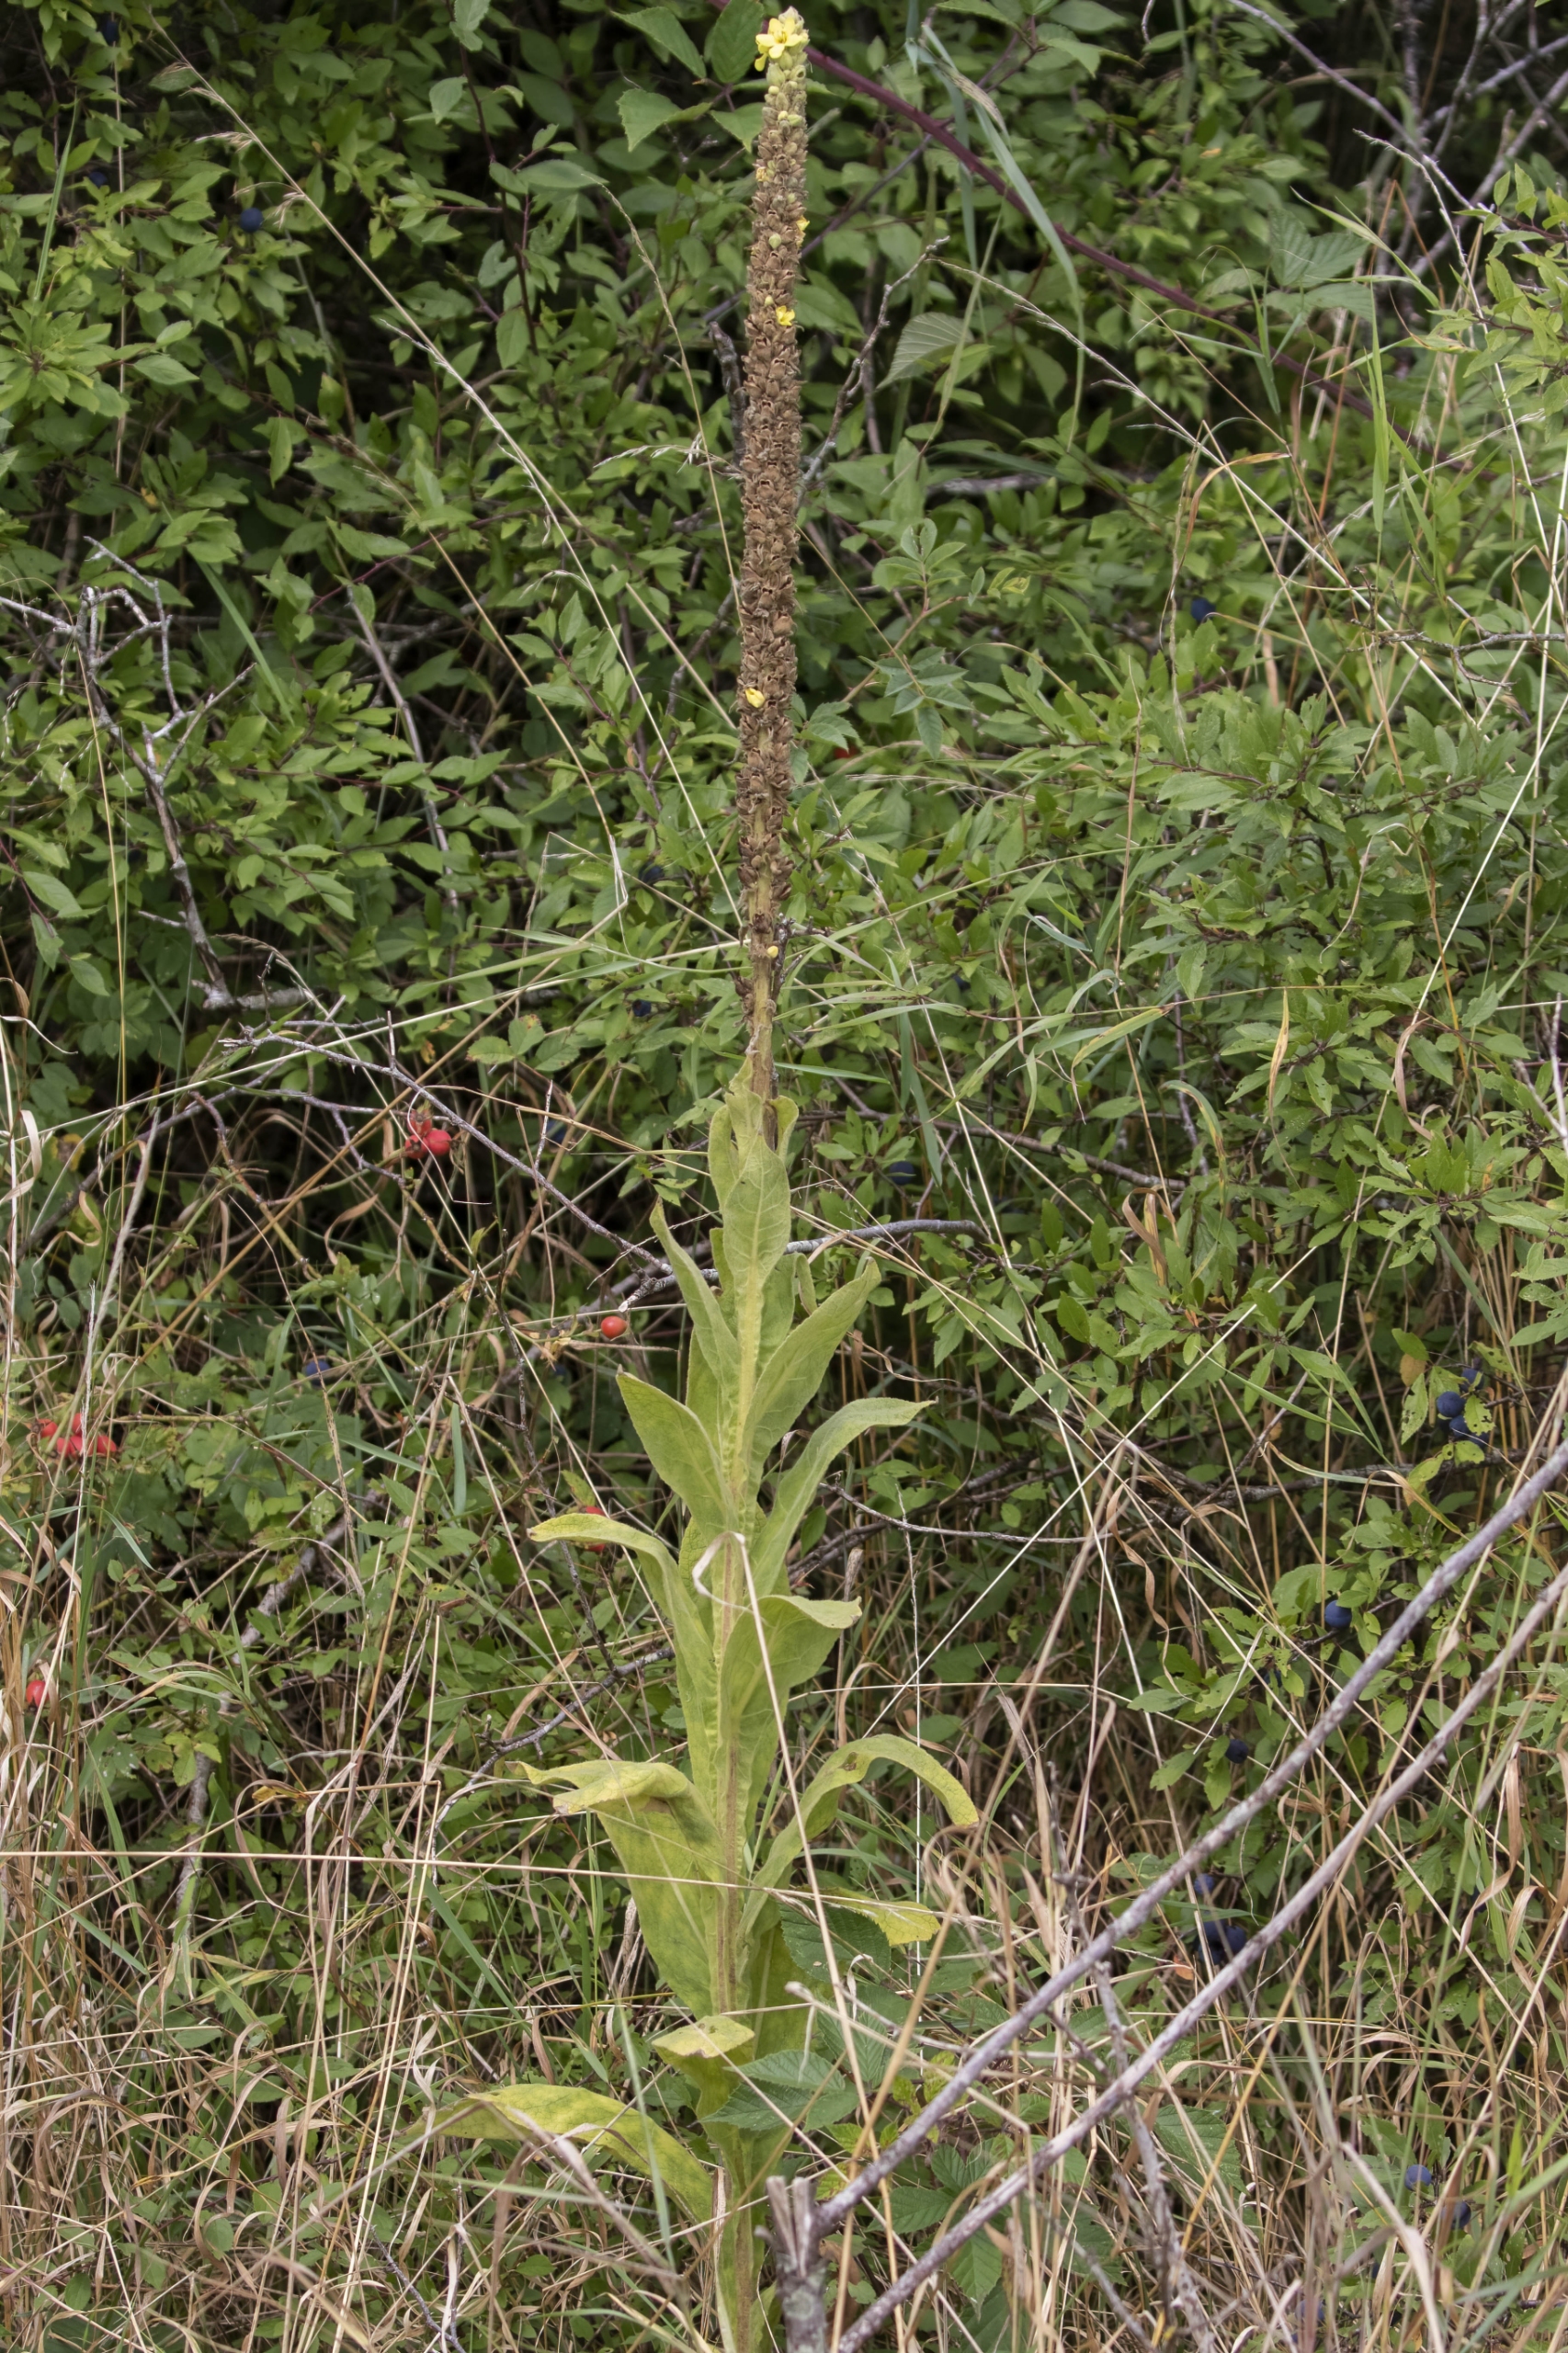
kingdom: Plantae
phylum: Tracheophyta
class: Magnoliopsida
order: Lamiales
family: Scrophulariaceae
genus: Verbascum
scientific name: Verbascum thapsus
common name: Filtbladet kongelys
